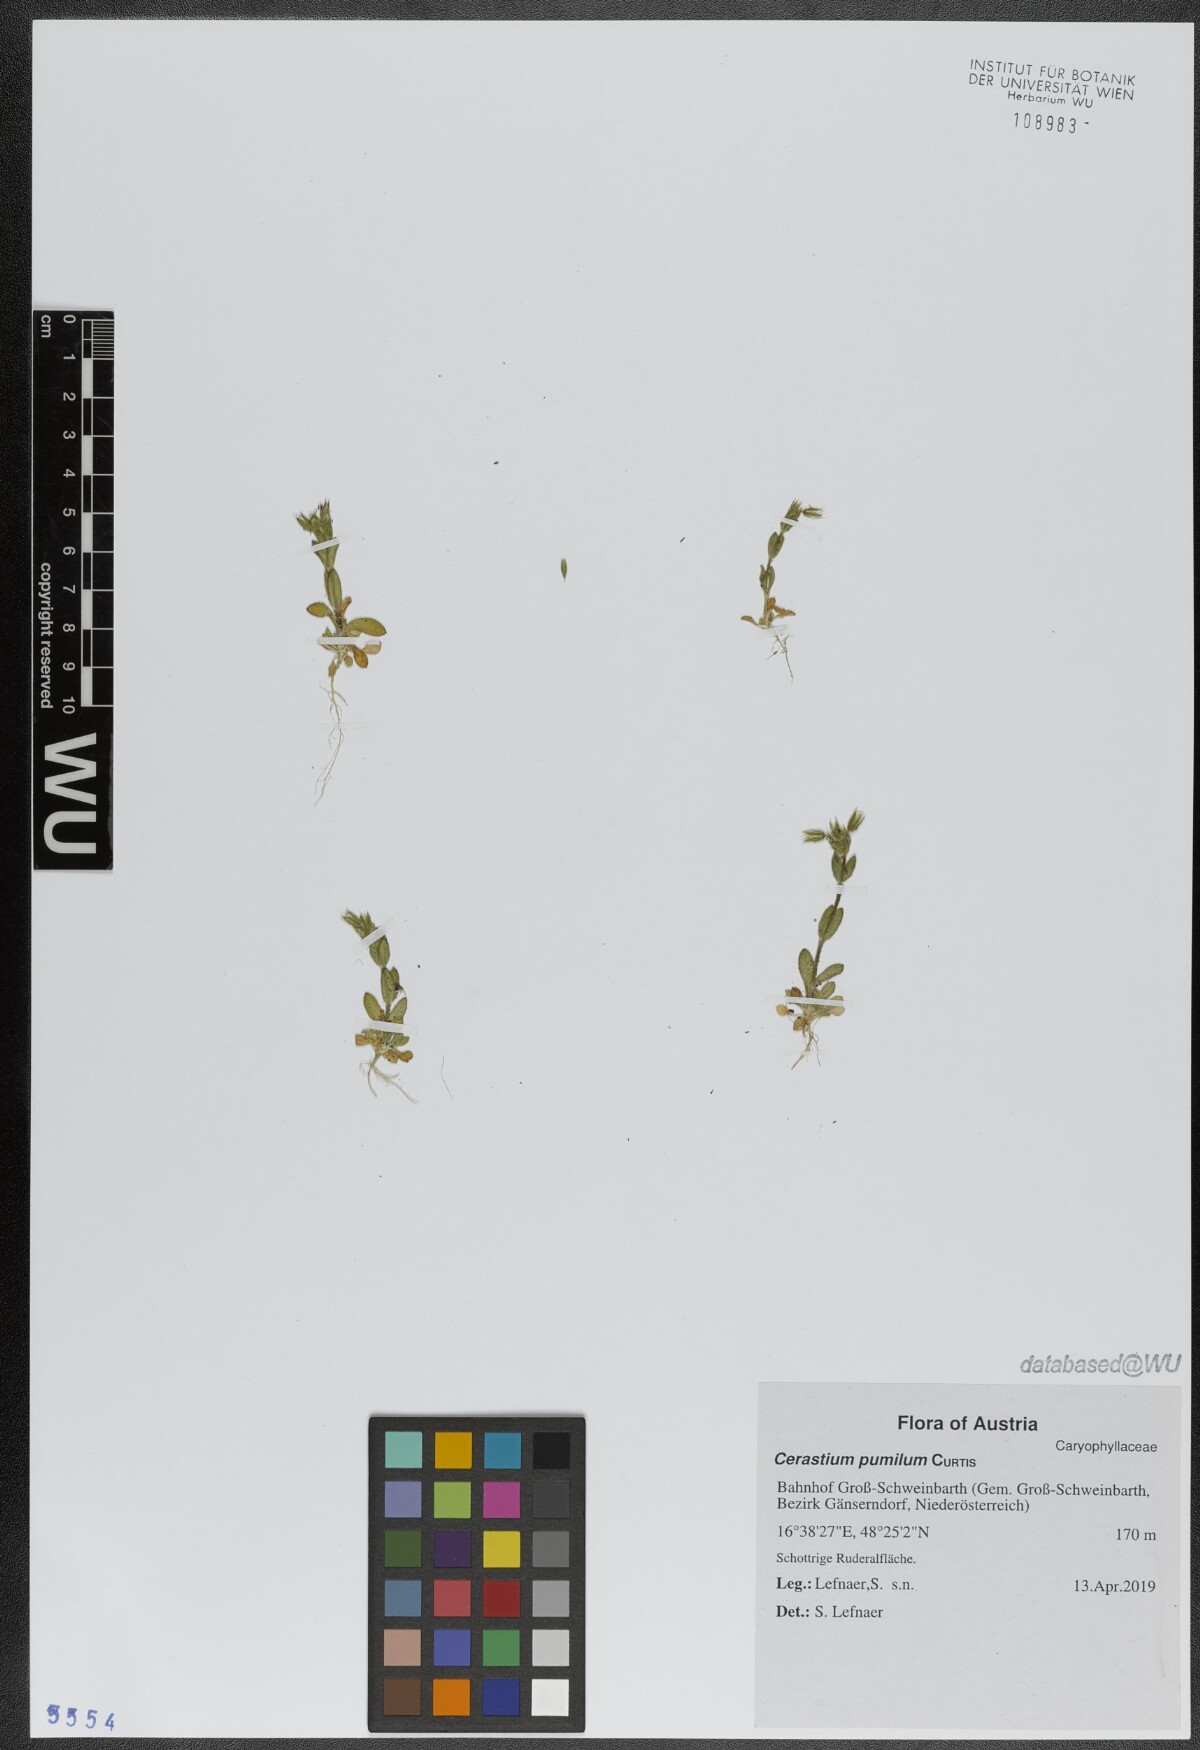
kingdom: Plantae
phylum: Tracheophyta
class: Magnoliopsida
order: Caryophyllales
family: Caryophyllaceae
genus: Cerastium
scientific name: Cerastium pumilum
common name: Dwarf mouse-ear
